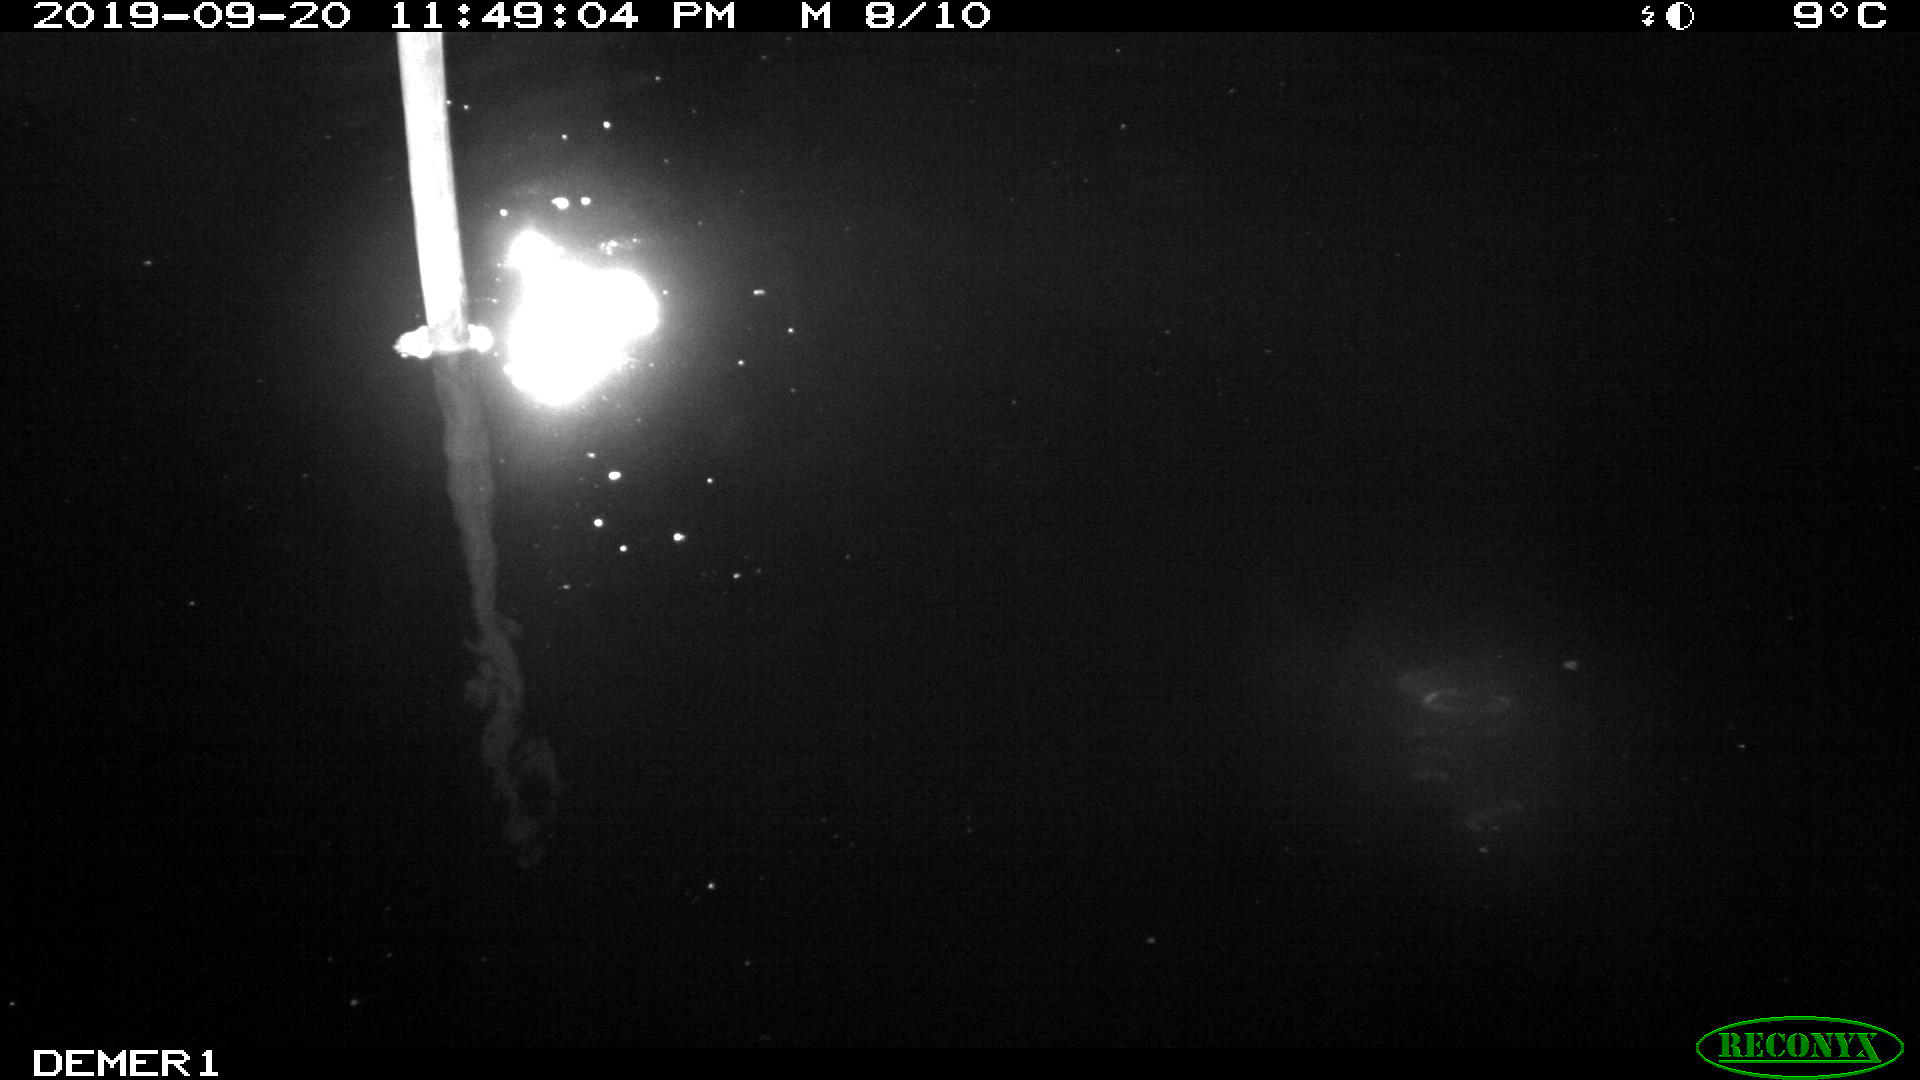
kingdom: Animalia
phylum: Chordata
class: Aves
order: Anseriformes
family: Anatidae
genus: Anas
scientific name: Anas platyrhynchos
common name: Mallard
